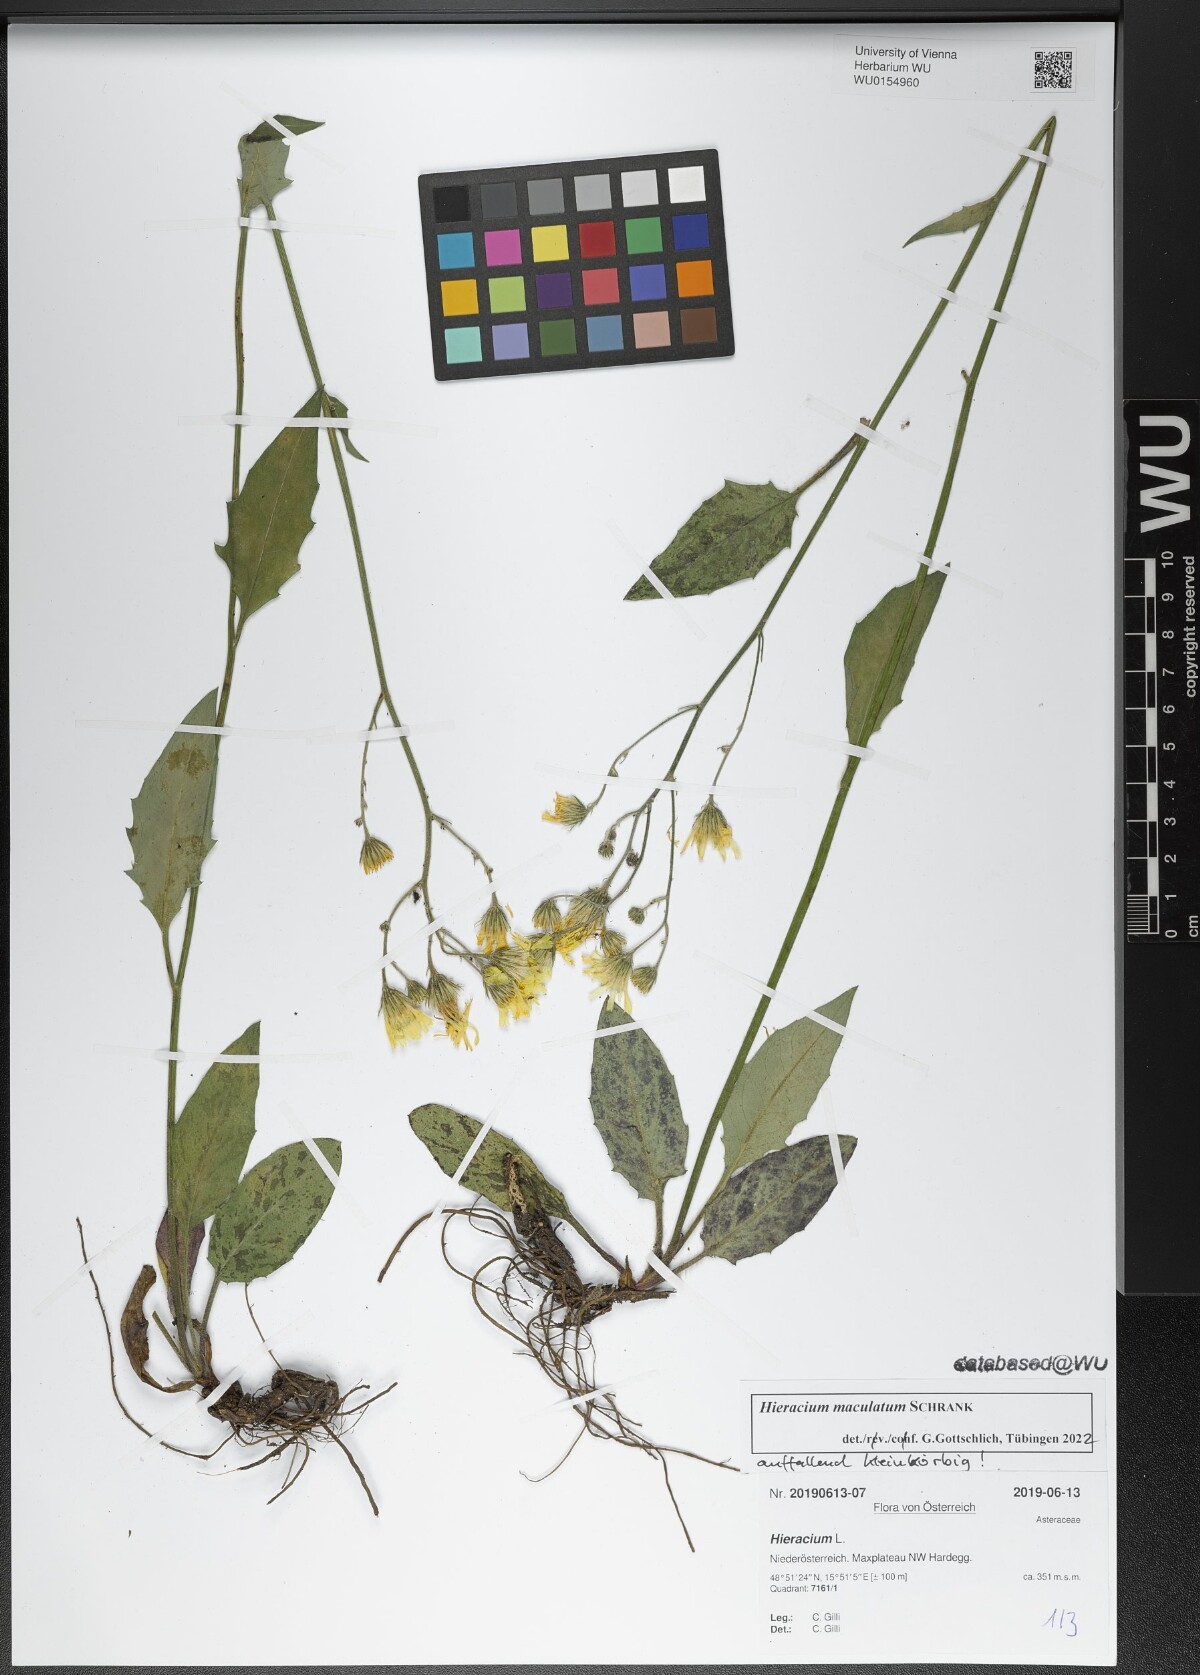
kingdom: Plantae
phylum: Tracheophyta
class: Magnoliopsida
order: Asterales
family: Asteraceae
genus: Hieracium
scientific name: Hieracium maculatum
